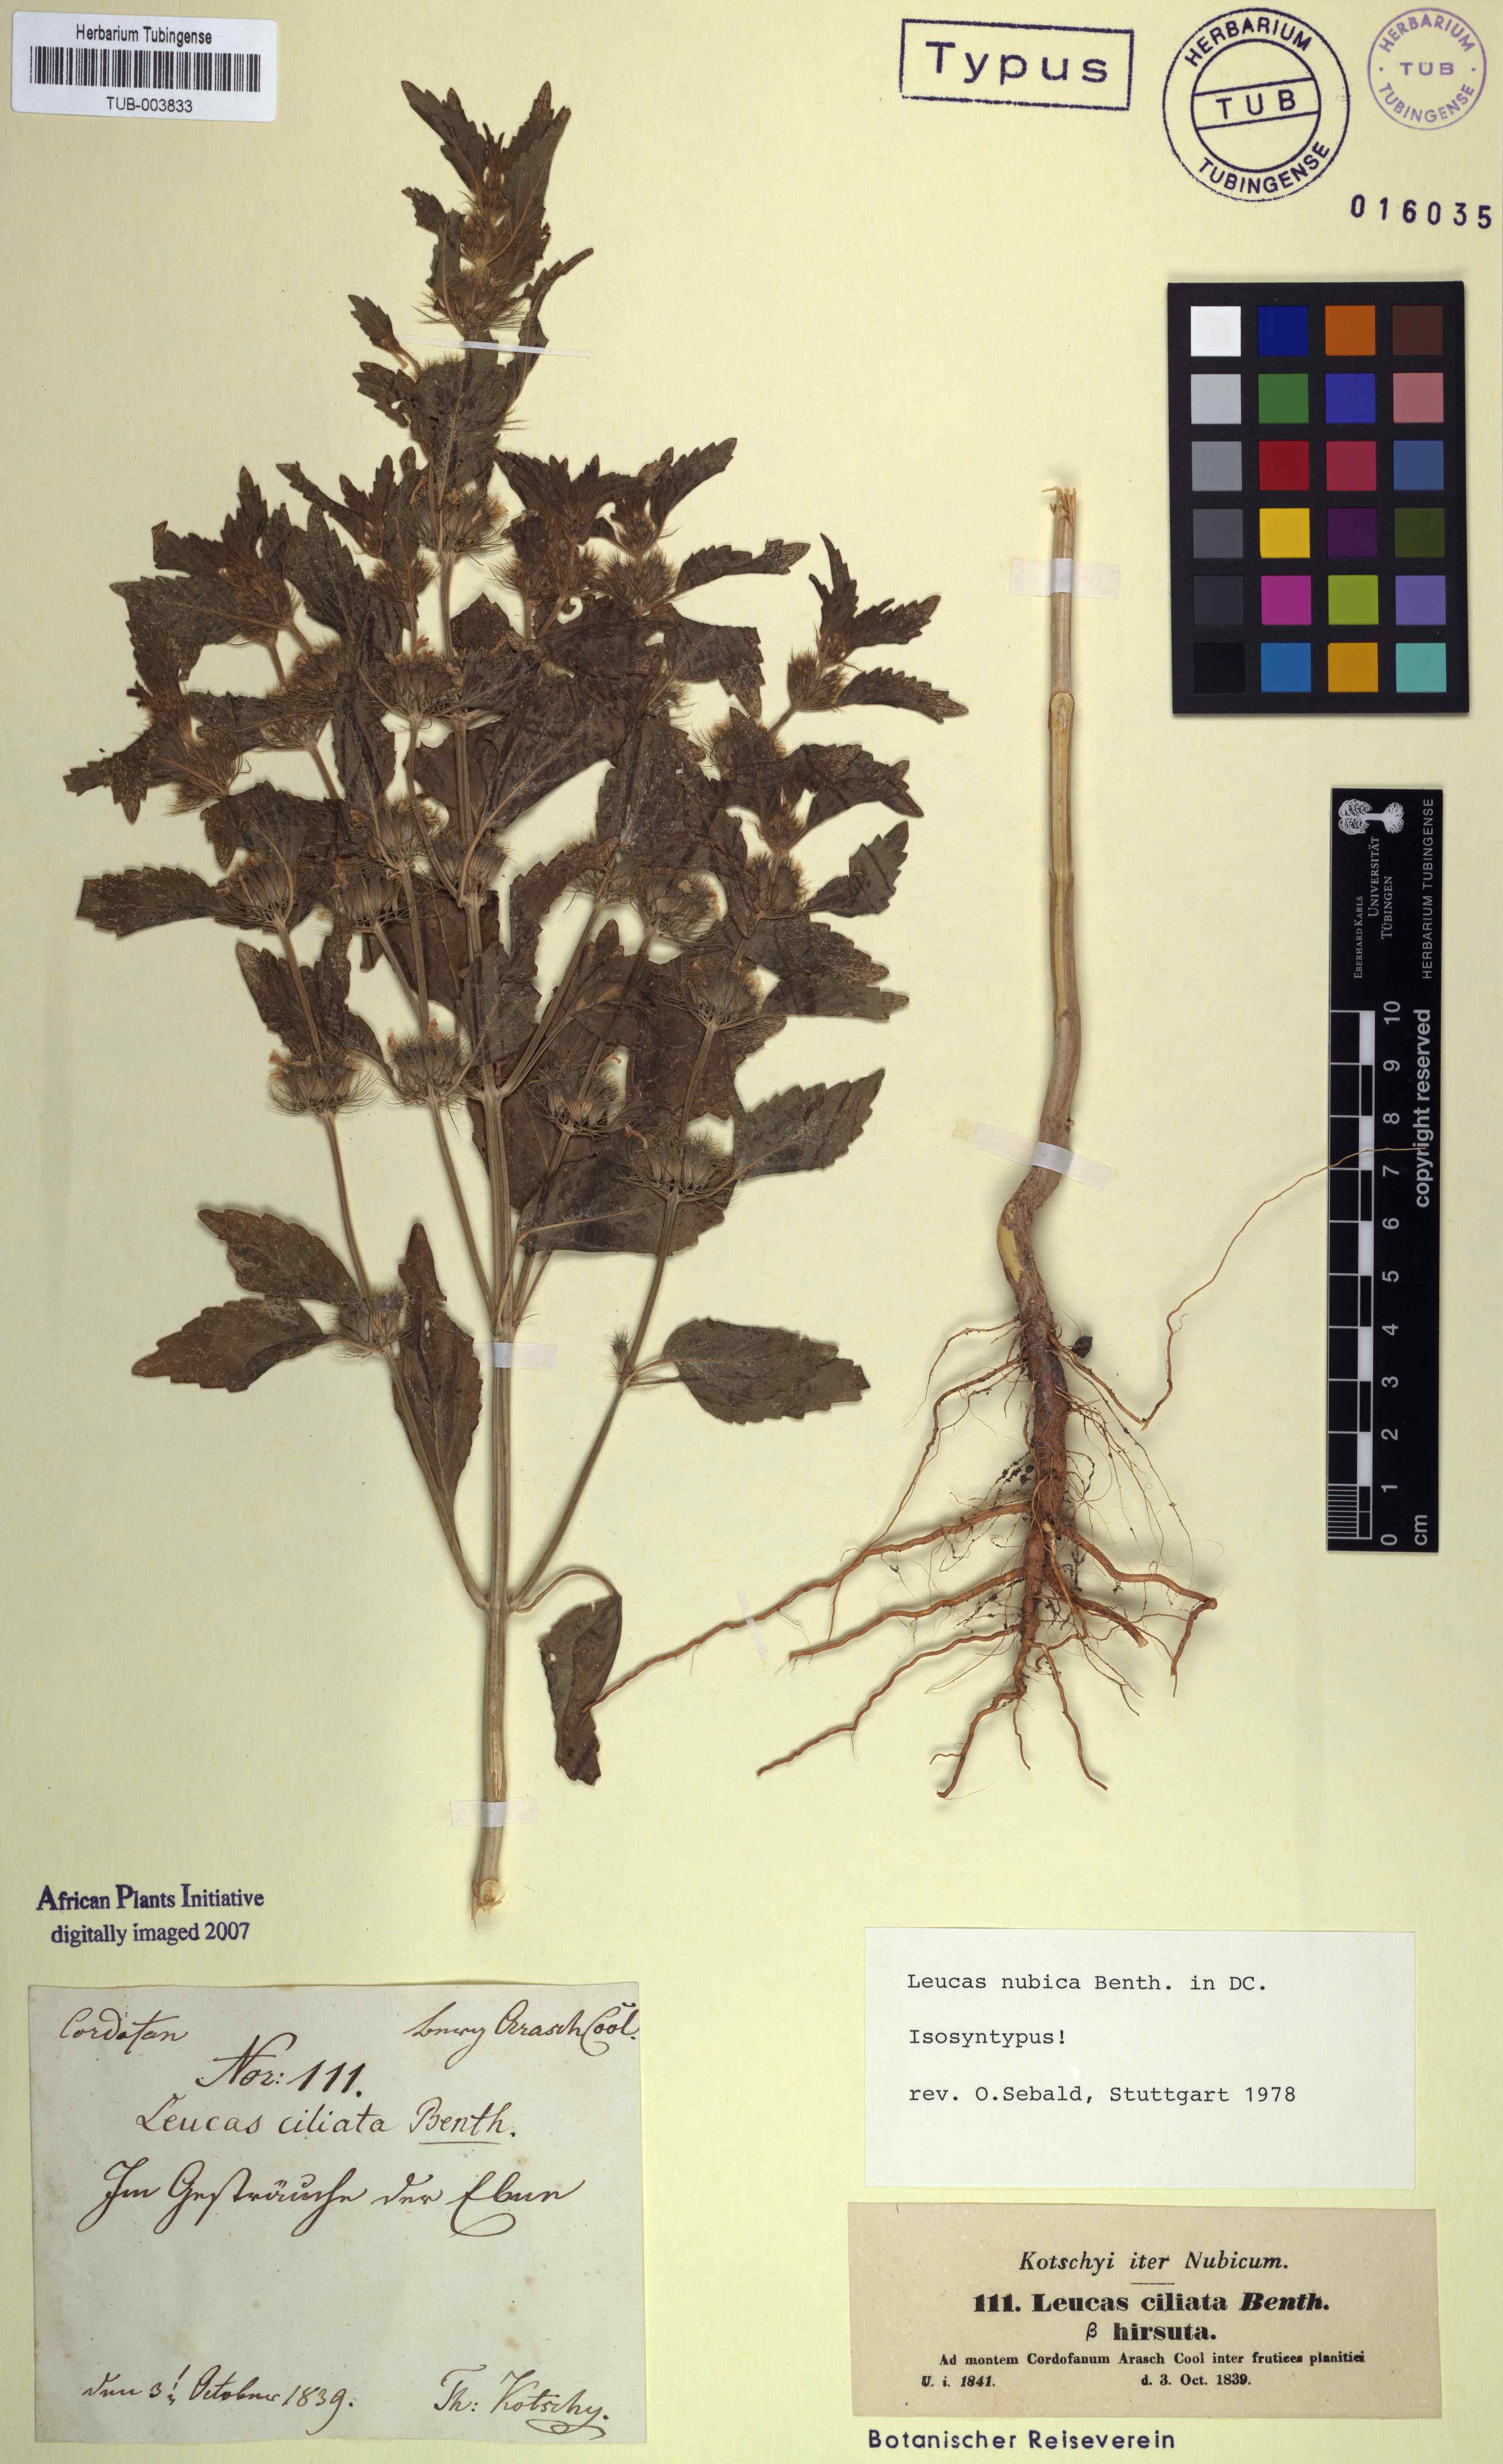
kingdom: Plantae
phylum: Tracheophyta
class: Magnoliopsida
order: Lamiales
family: Lamiaceae
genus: Leucas
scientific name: Leucas nubica
